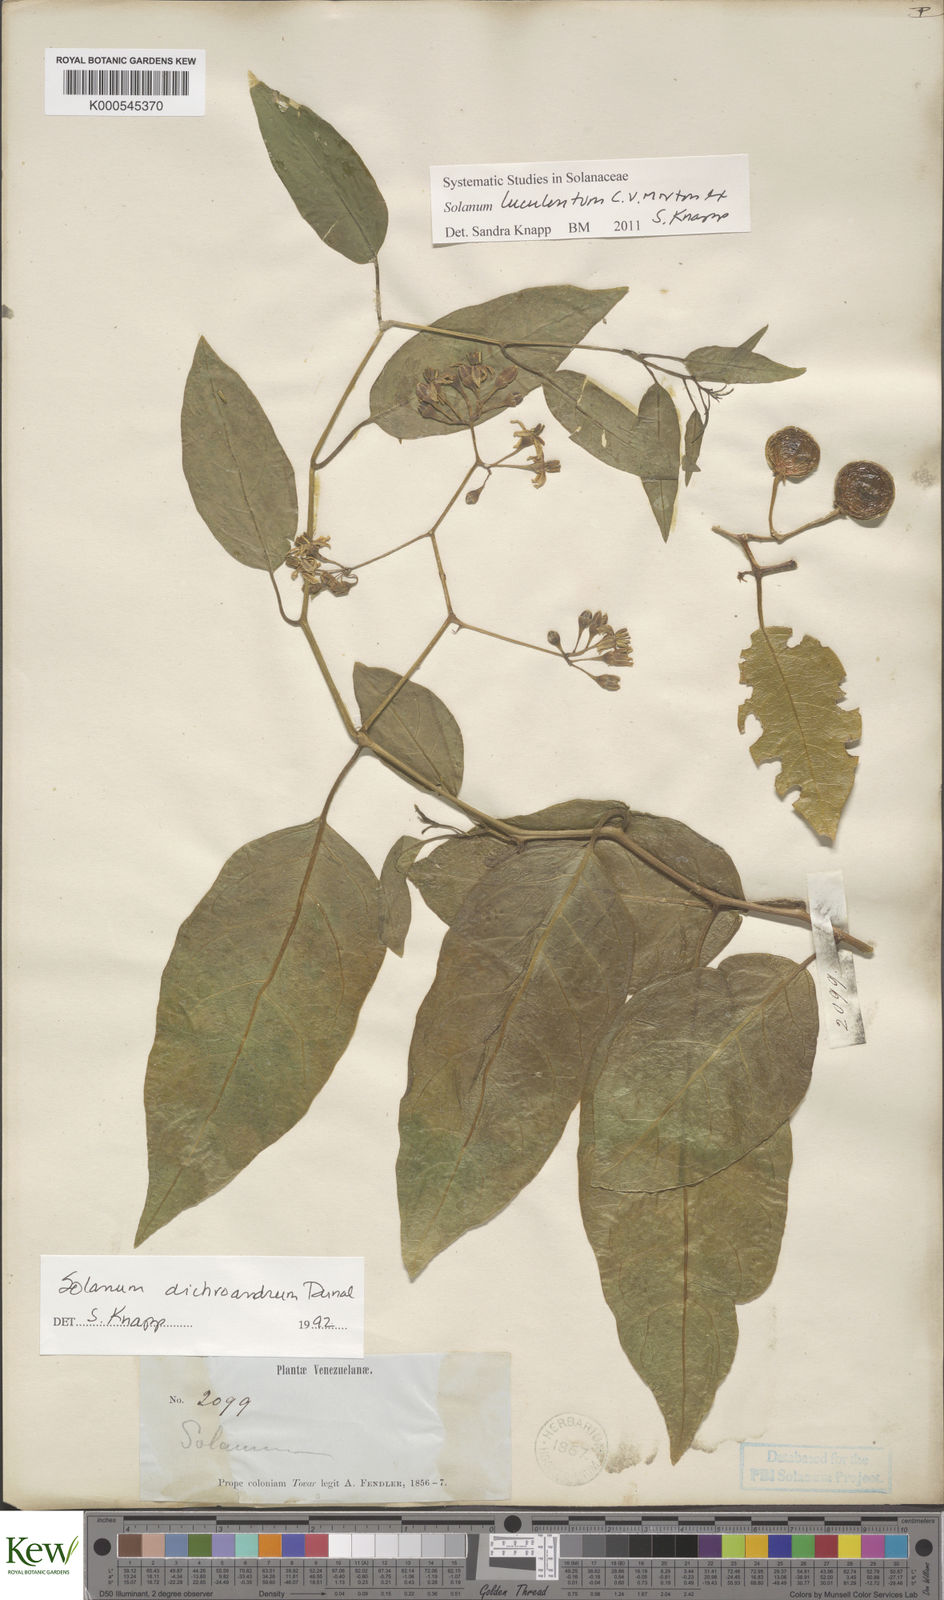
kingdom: Plantae
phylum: Tracheophyta
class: Magnoliopsida
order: Solanales
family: Solanaceae
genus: Solanum
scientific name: Solanum luculentum
